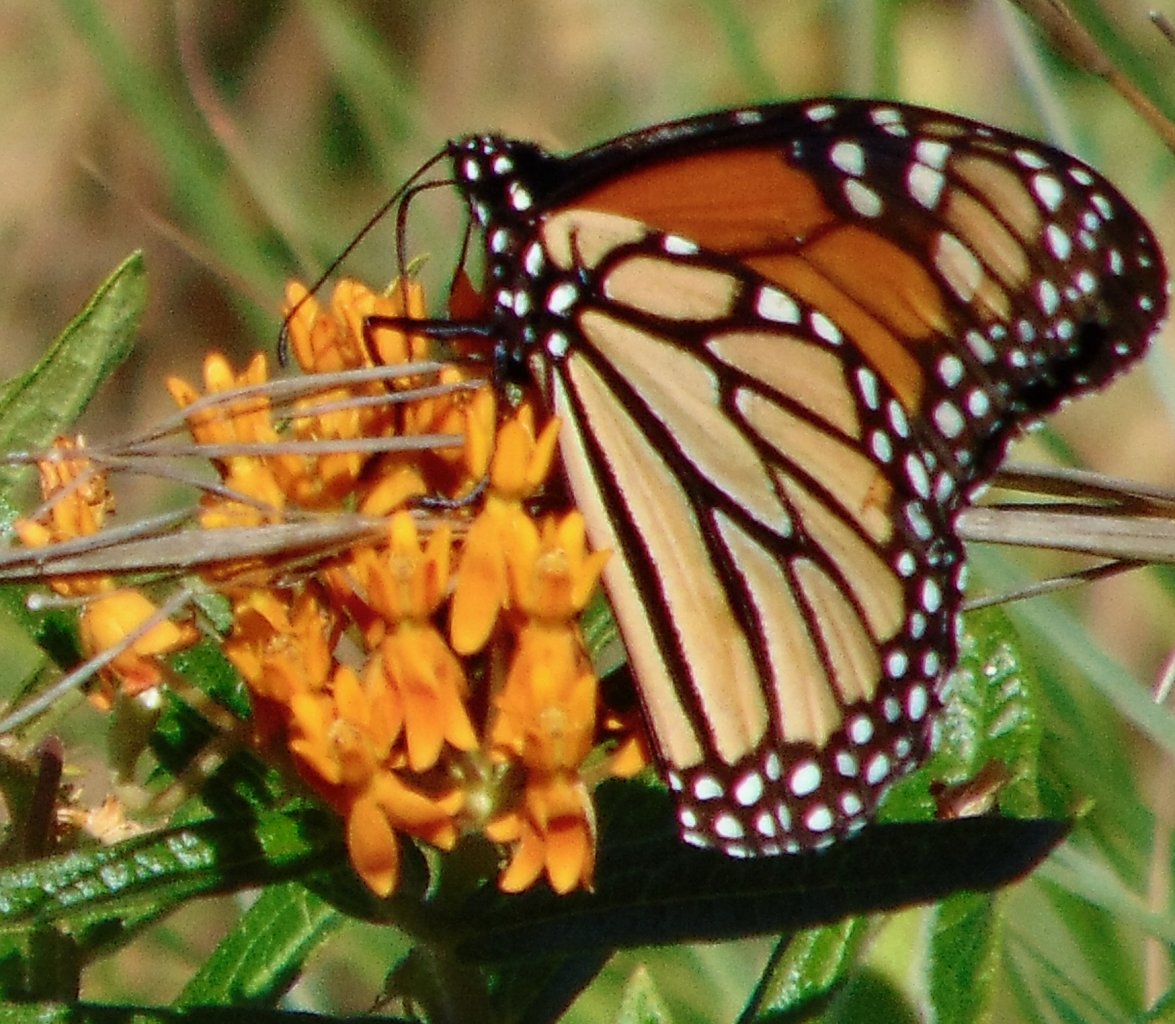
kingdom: Animalia
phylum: Arthropoda
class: Insecta
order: Lepidoptera
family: Nymphalidae
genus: Danaus
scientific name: Danaus plexippus
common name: Monarch
